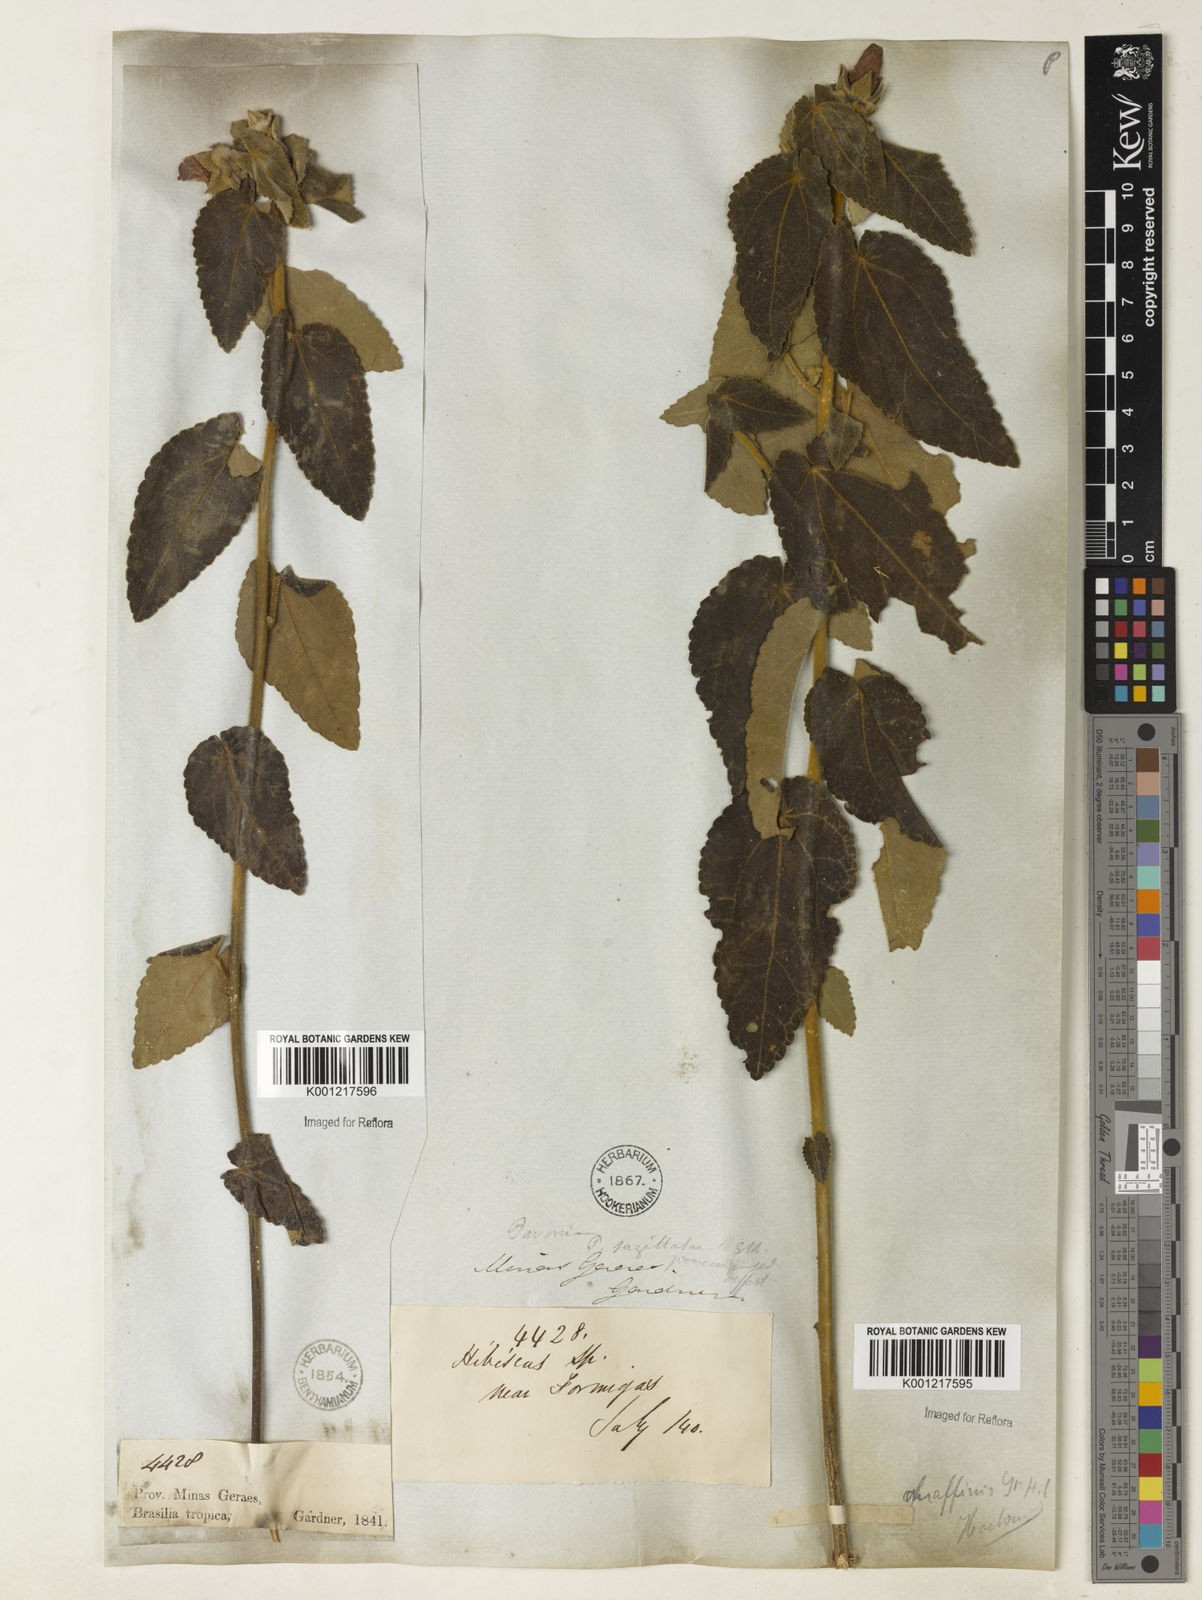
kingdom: Plantae
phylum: Tracheophyta
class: Magnoliopsida
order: Malvales
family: Malvaceae
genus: Pavonia
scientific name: Pavonia
